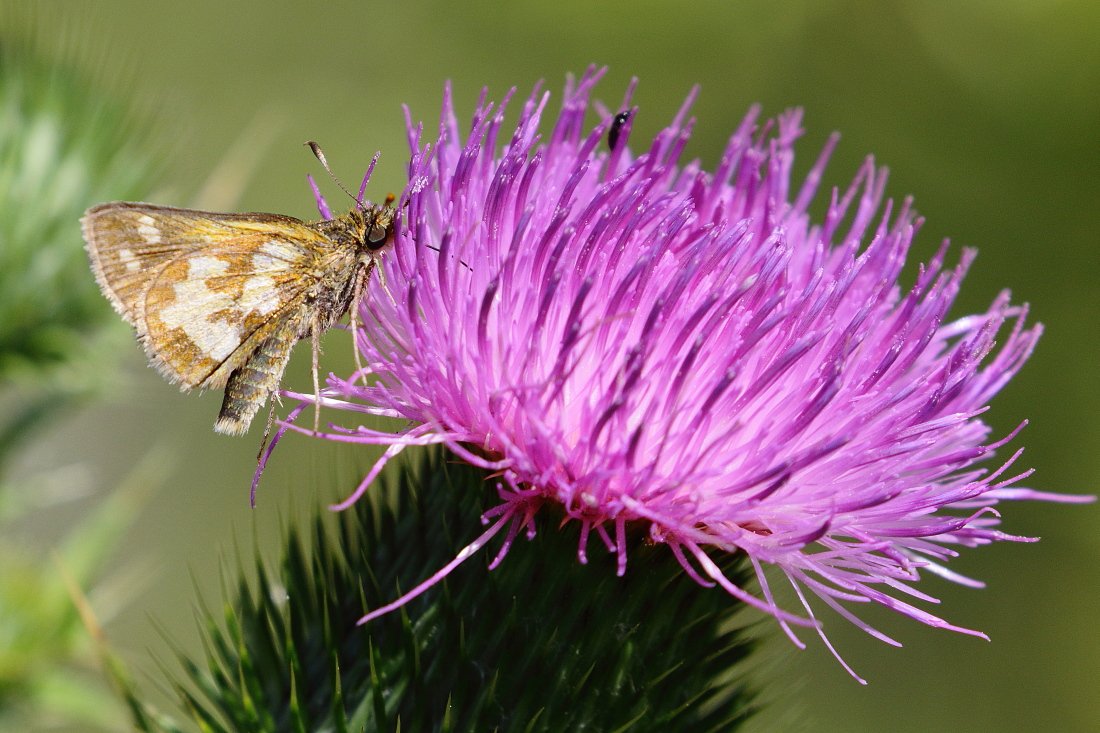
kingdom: Animalia
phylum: Arthropoda
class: Insecta
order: Lepidoptera
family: Hesperiidae
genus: Polites
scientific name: Polites coras
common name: Peck's Skipper
